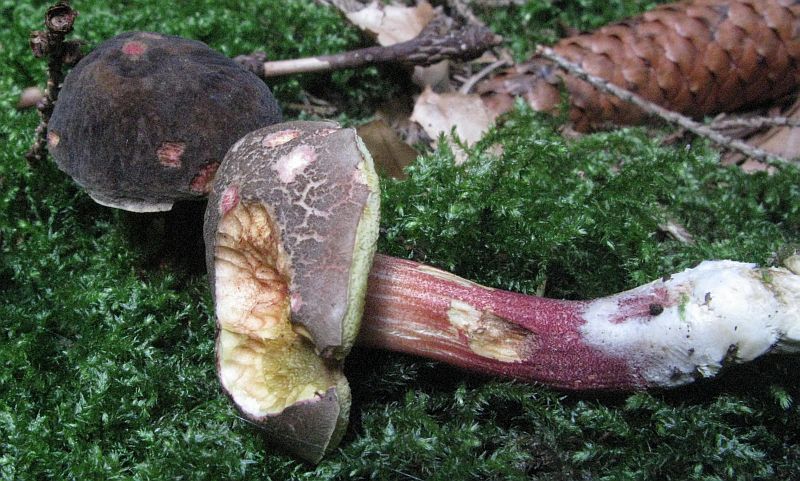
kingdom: Fungi
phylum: Basidiomycota
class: Agaricomycetes
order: Boletales
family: Boletaceae
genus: Xerocomellus
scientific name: Xerocomellus chrysenteron
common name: rødsprukken rørhat
